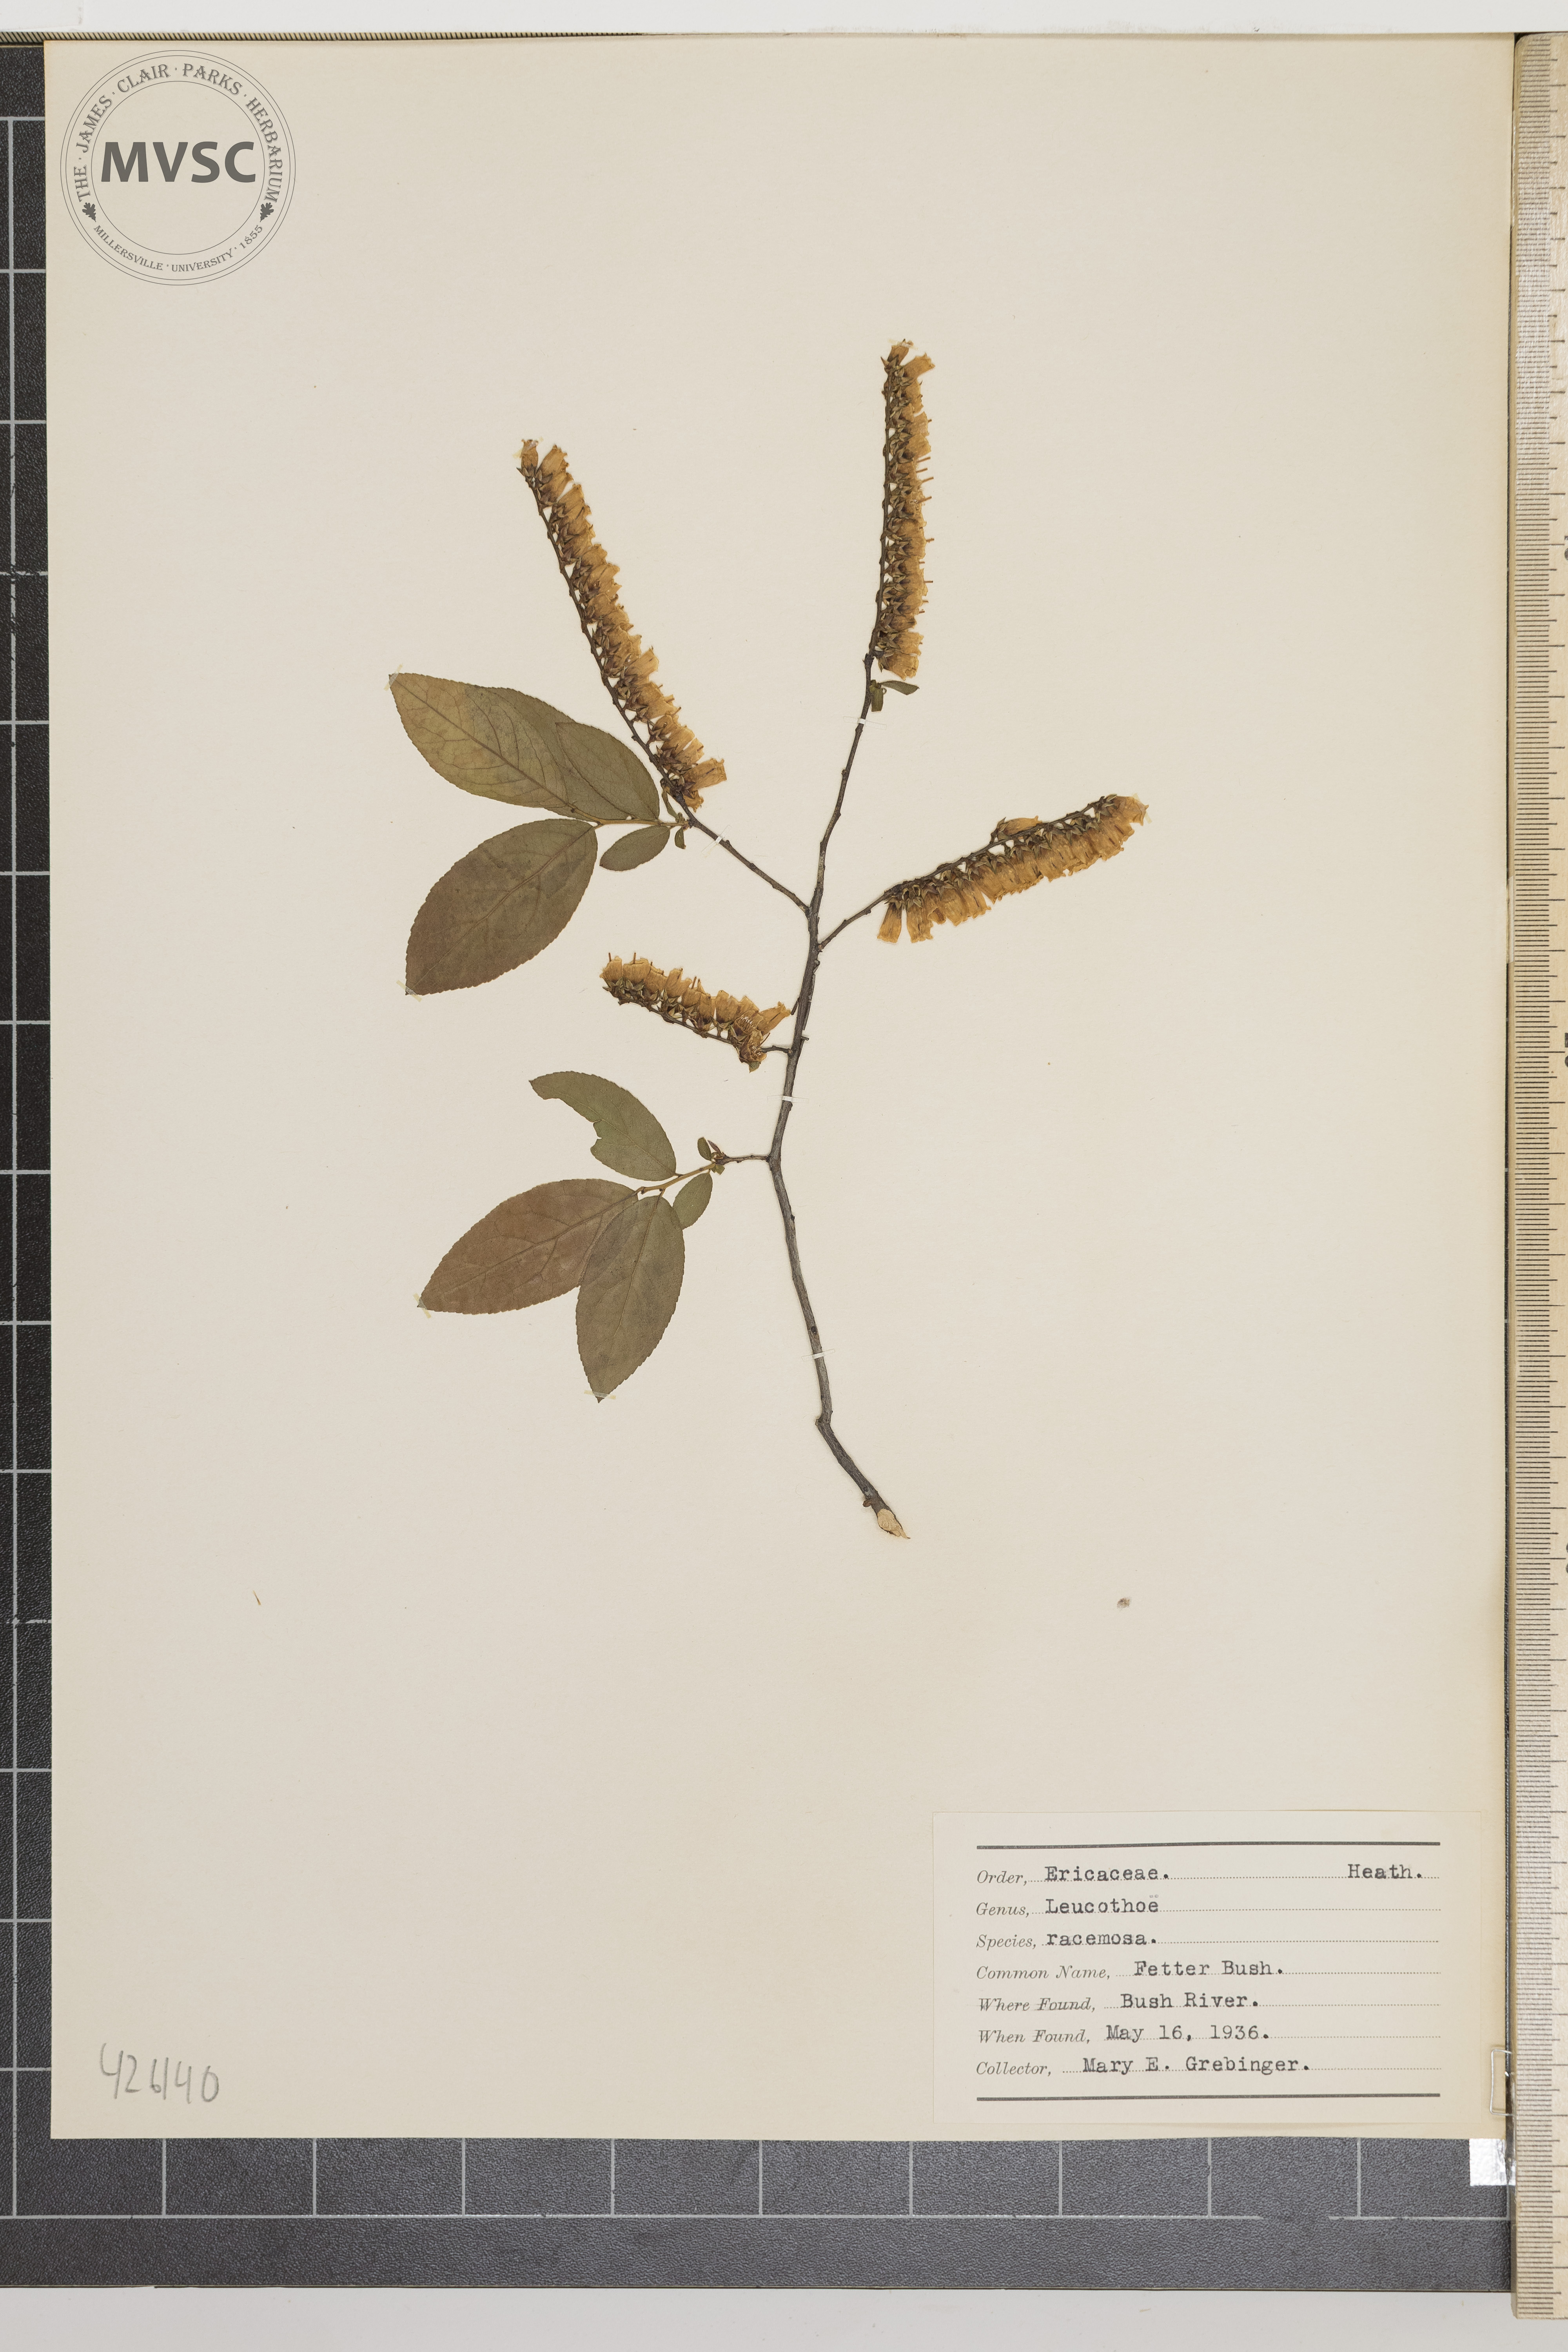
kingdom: Plantae
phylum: Tracheophyta
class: Magnoliopsida
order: Ericales
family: Ericaceae
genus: Eubotrys
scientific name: Eubotrys racemosa
